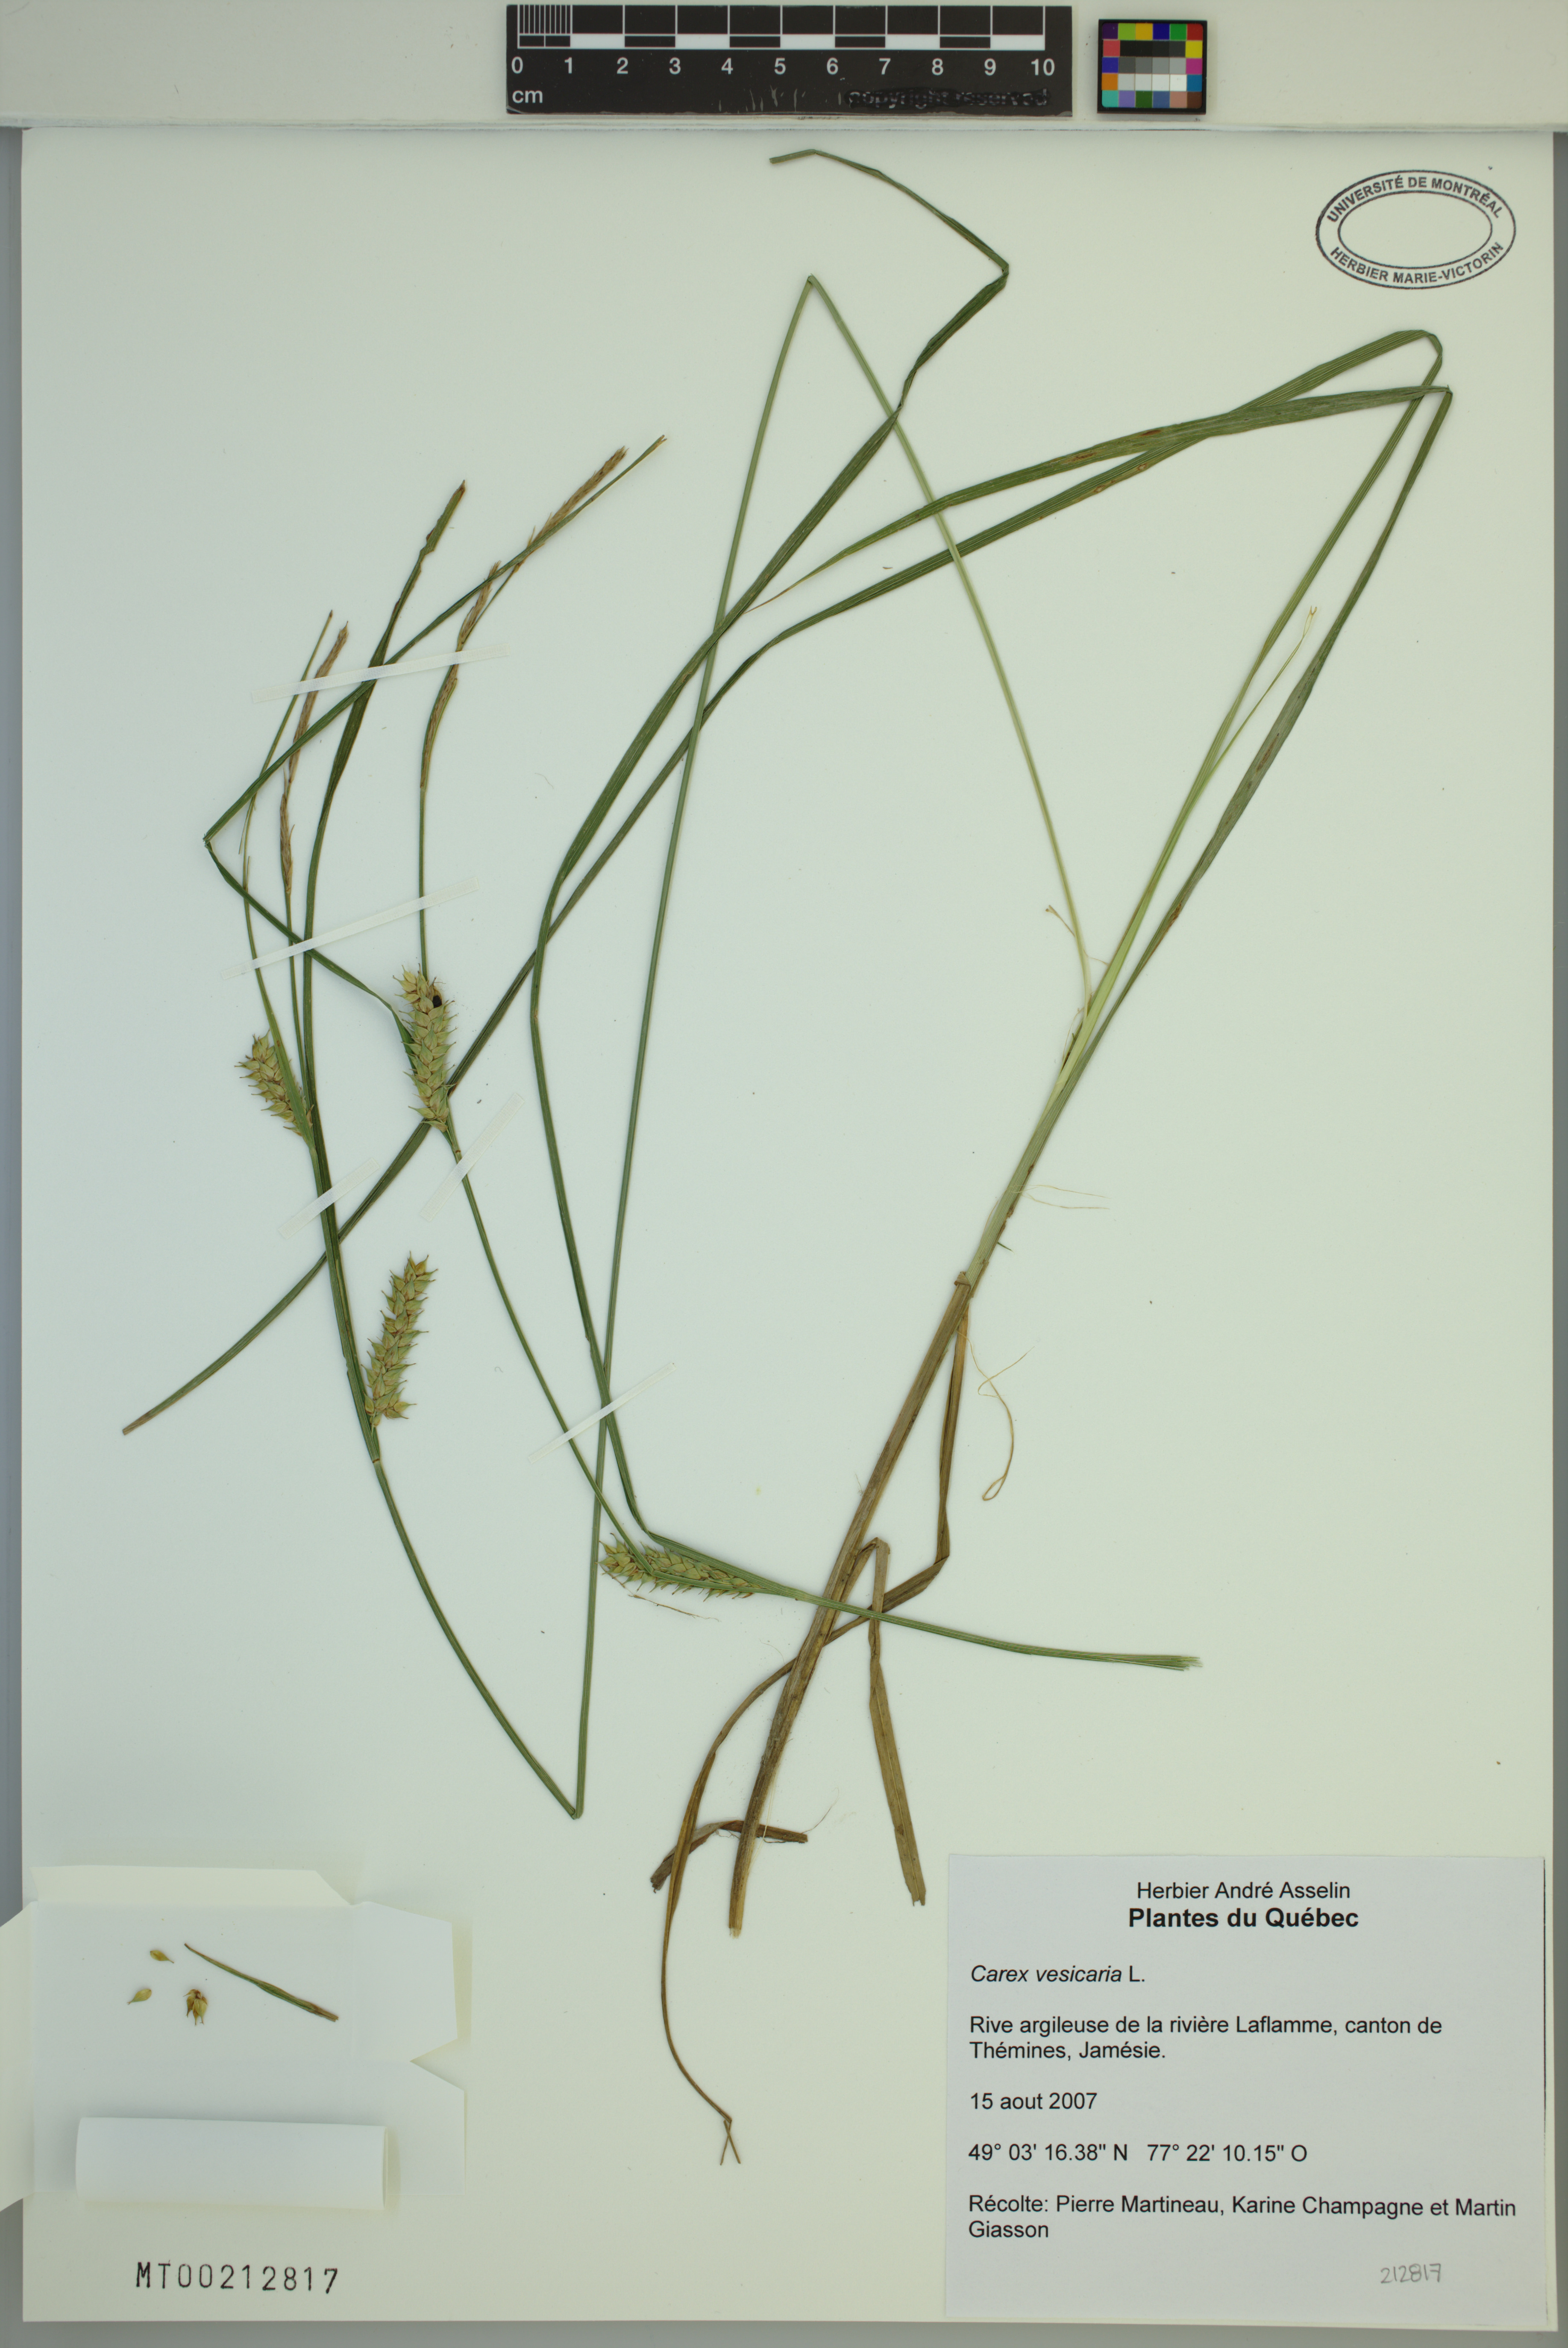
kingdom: Plantae
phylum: Tracheophyta
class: Liliopsida
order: Poales
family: Cyperaceae
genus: Carex
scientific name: Carex vesicaria
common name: Bladder-sedge
